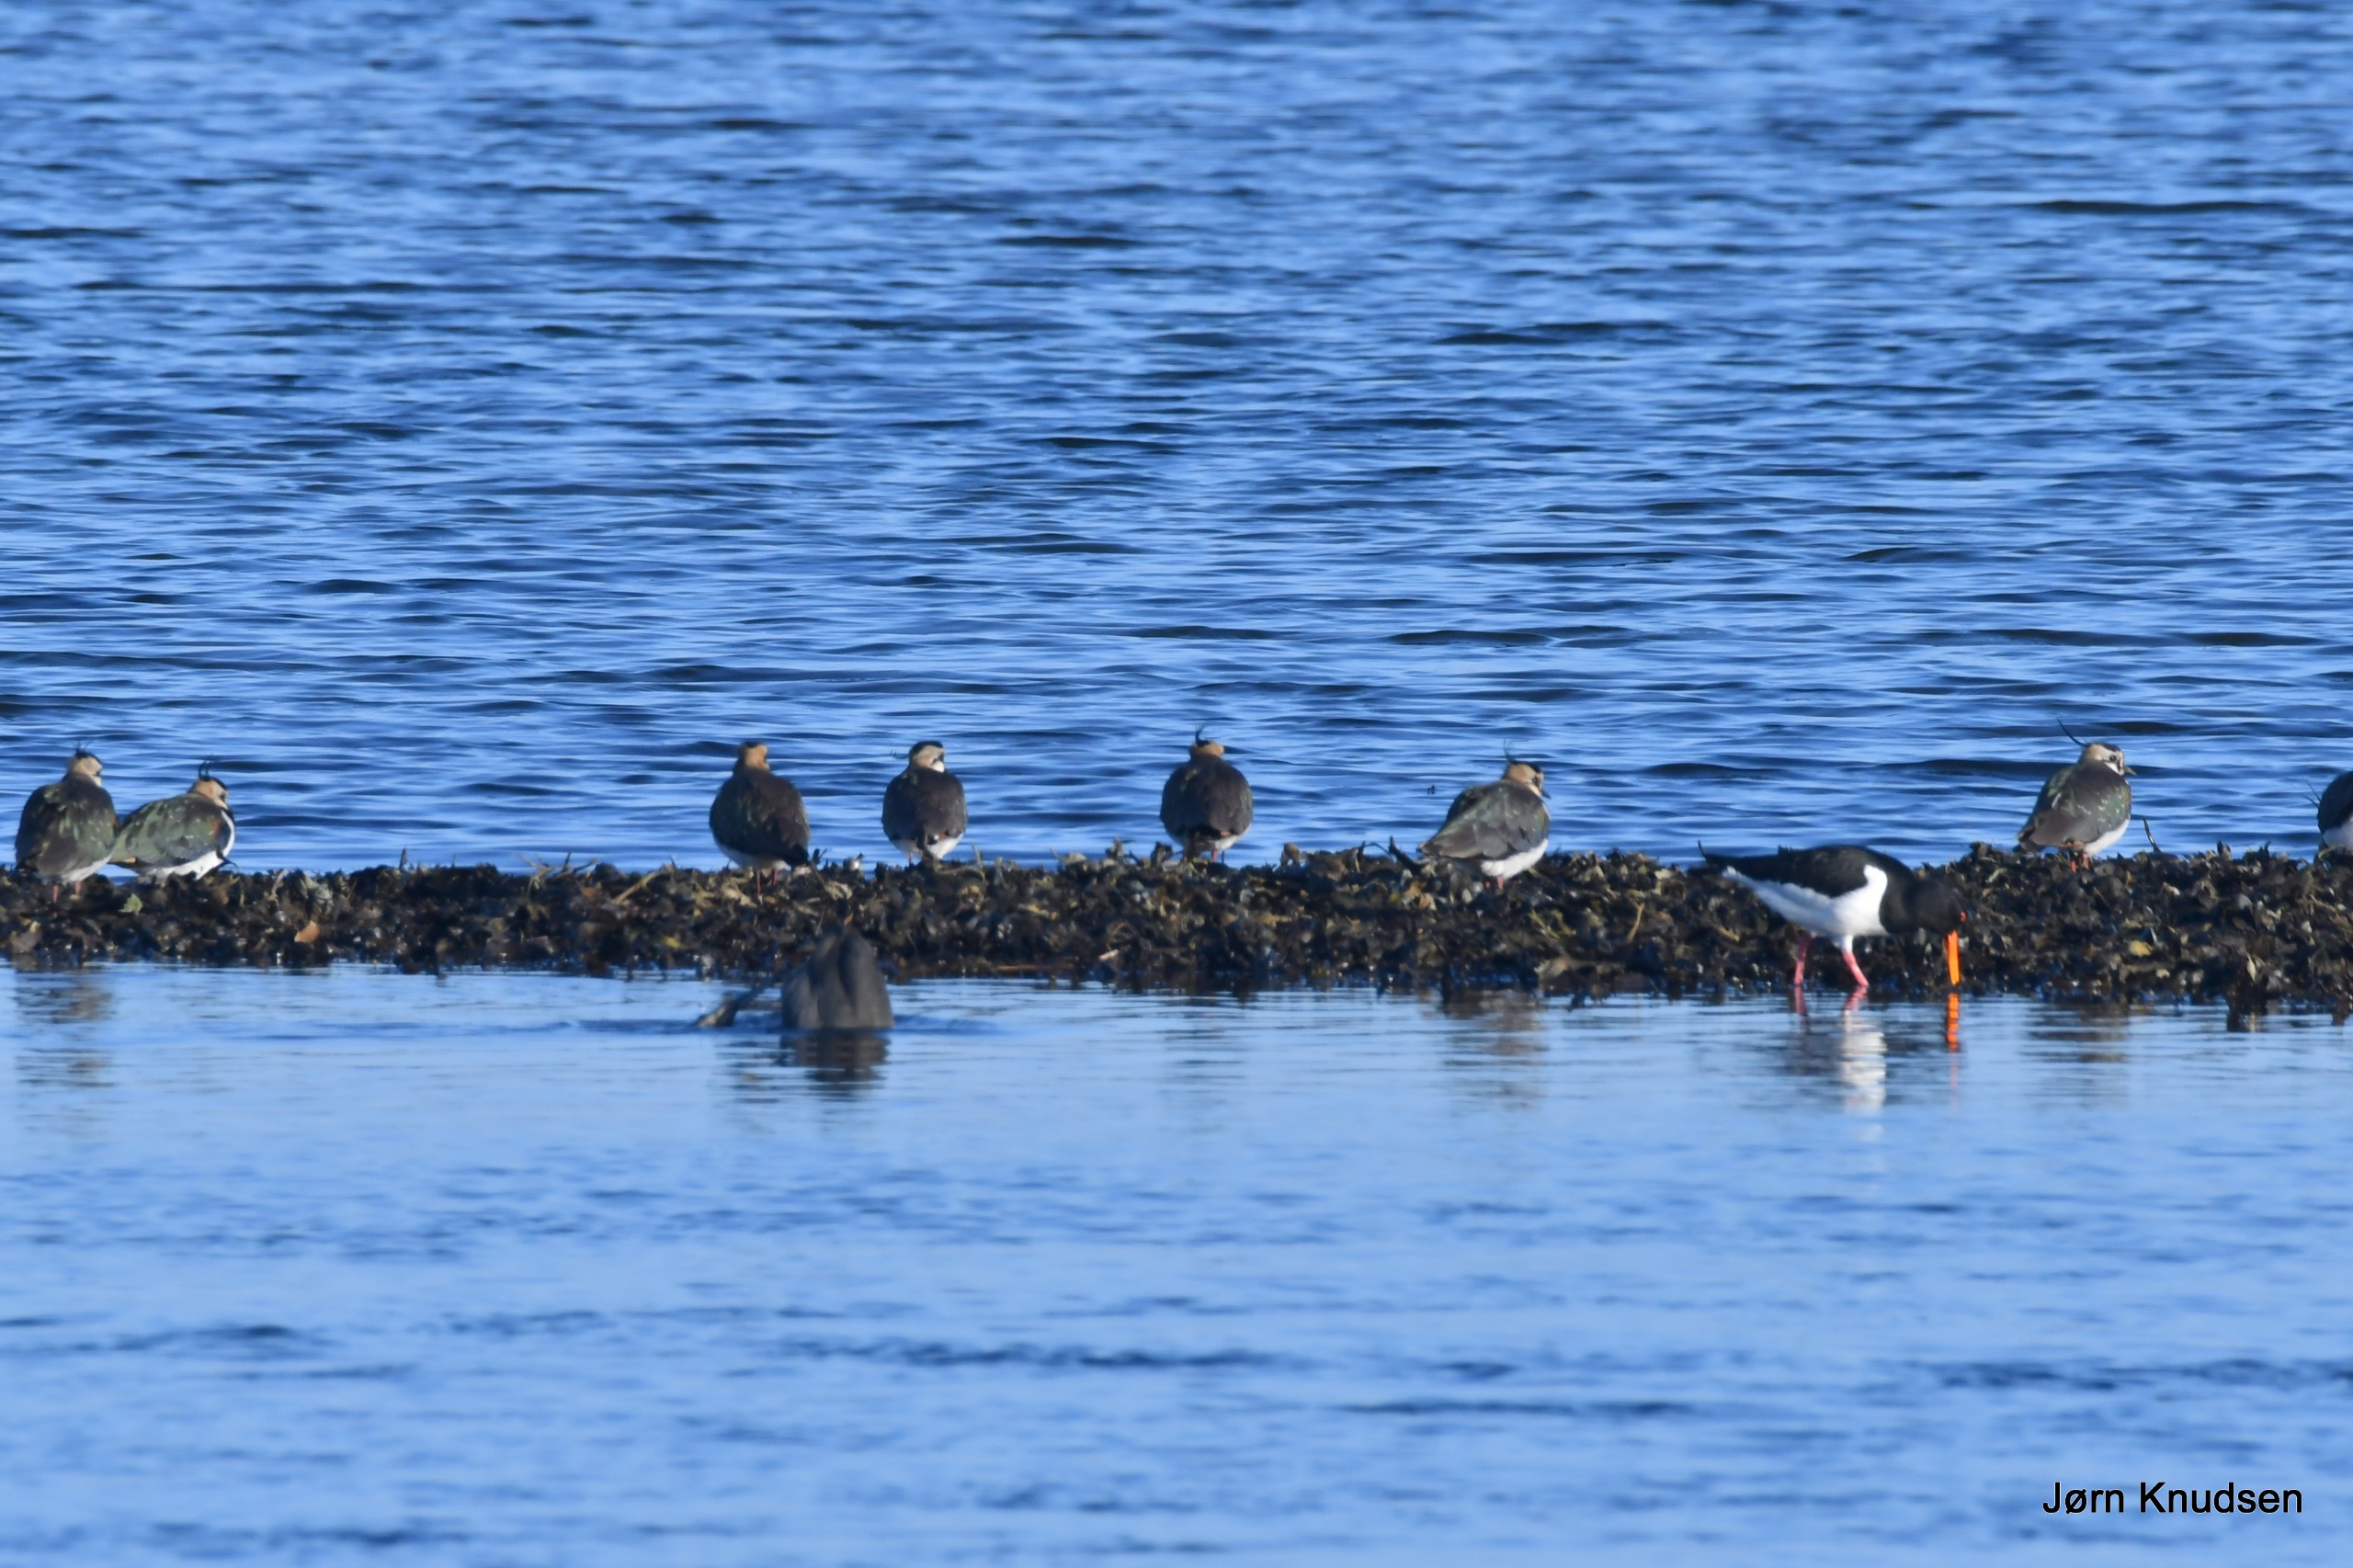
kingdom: Animalia
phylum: Chordata
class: Aves
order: Charadriiformes
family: Charadriidae
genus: Vanellus
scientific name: Vanellus vanellus
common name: Vibe
